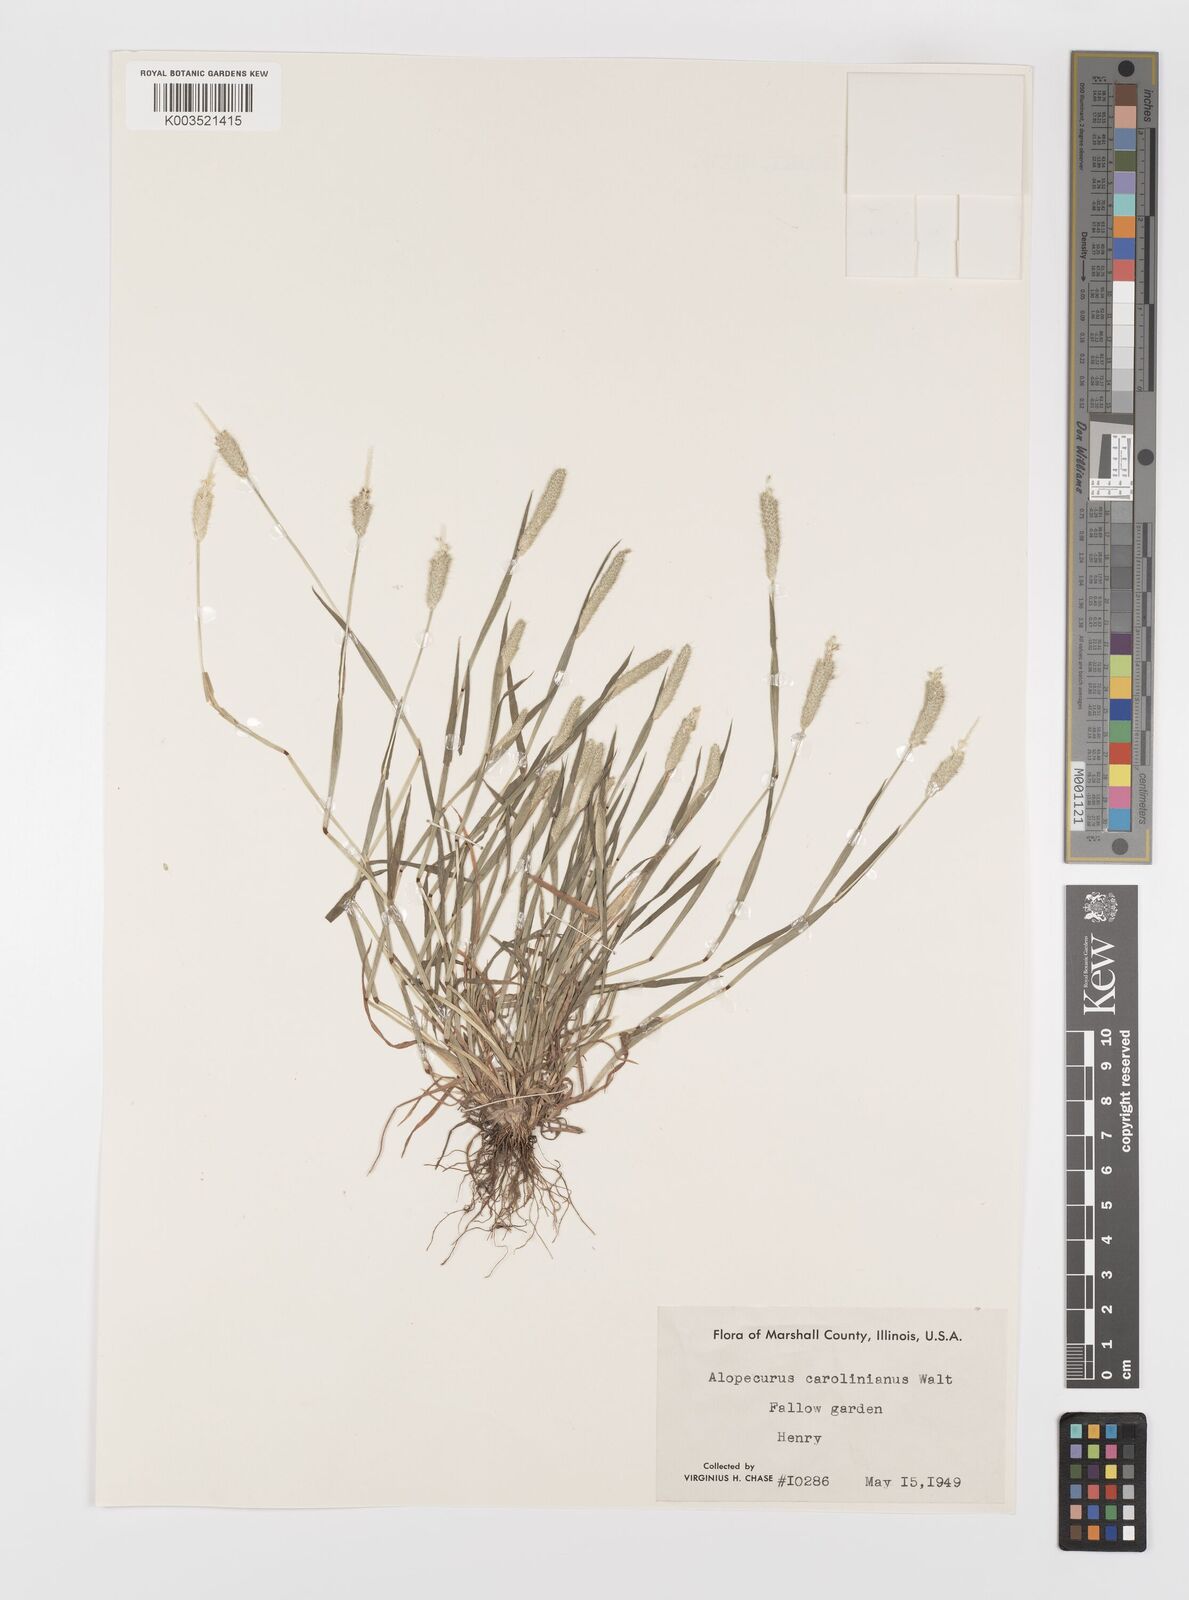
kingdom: Plantae
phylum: Tracheophyta
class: Liliopsida
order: Poales
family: Poaceae
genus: Alopecurus
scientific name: Alopecurus carolinianus
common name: Tufted foxtail
